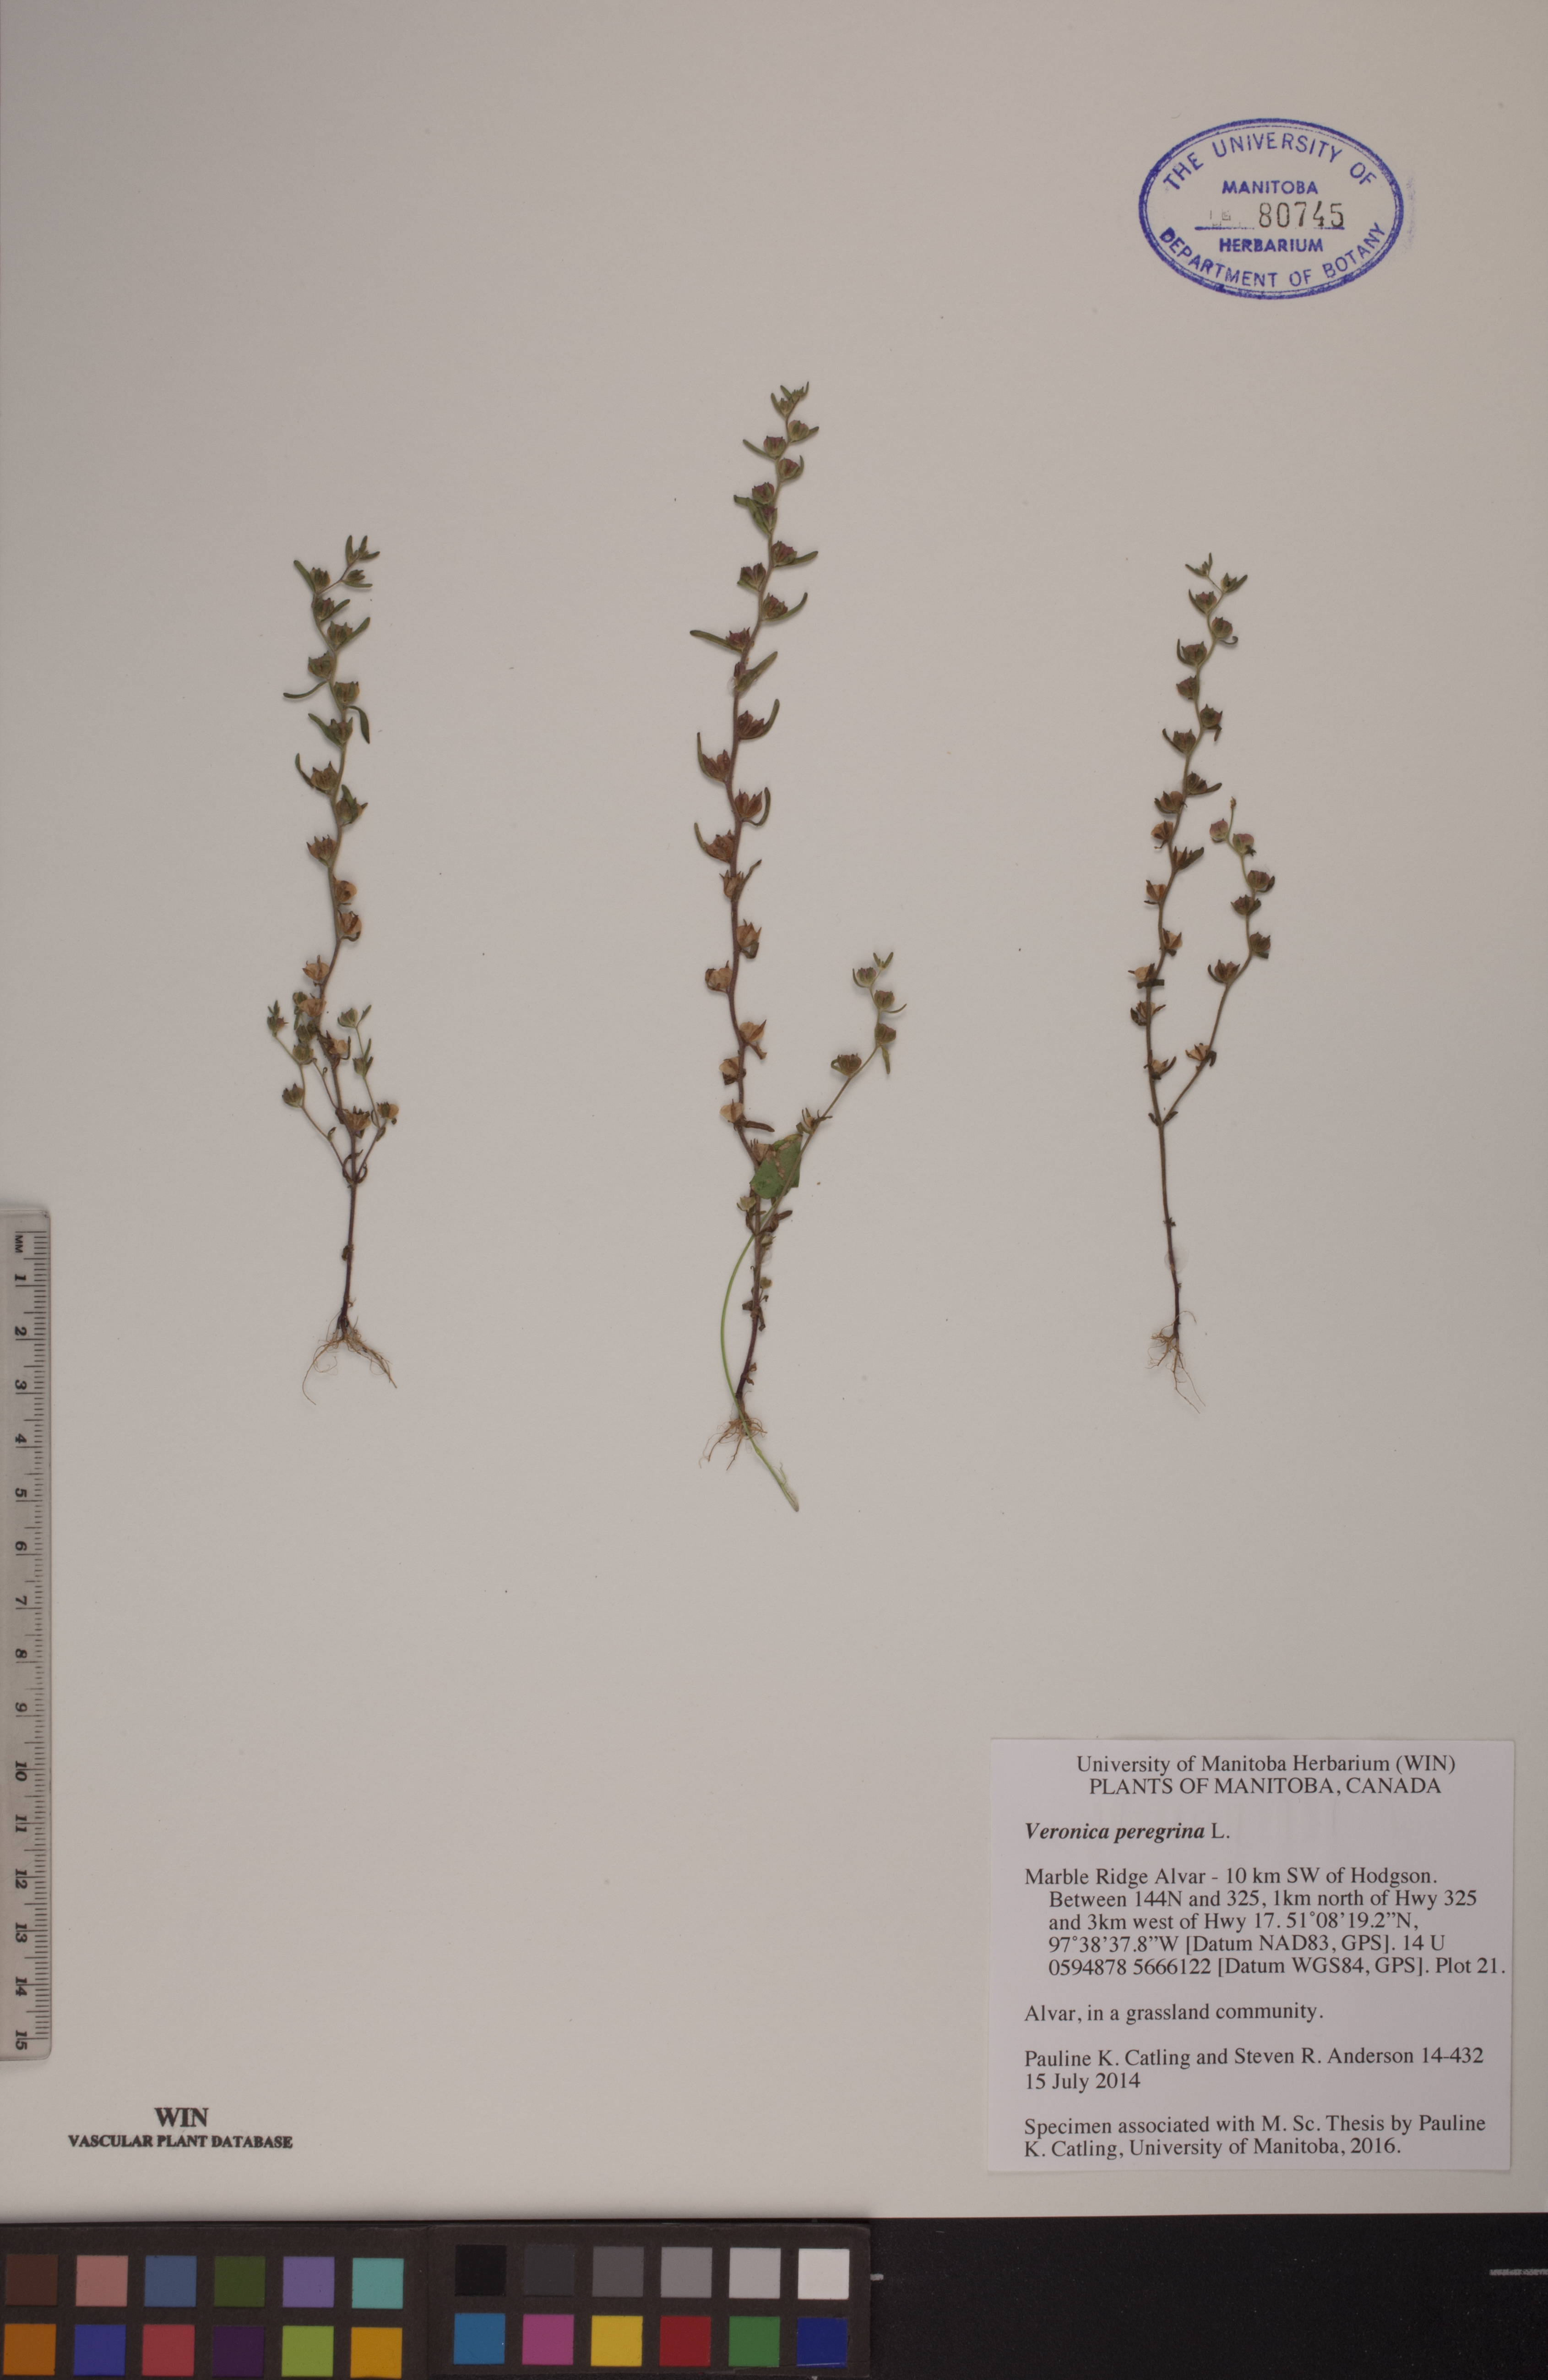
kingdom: Plantae
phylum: Tracheophyta
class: Magnoliopsida
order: Lamiales
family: Plantaginaceae
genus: Veronica
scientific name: Veronica peregrina
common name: Neckweed
